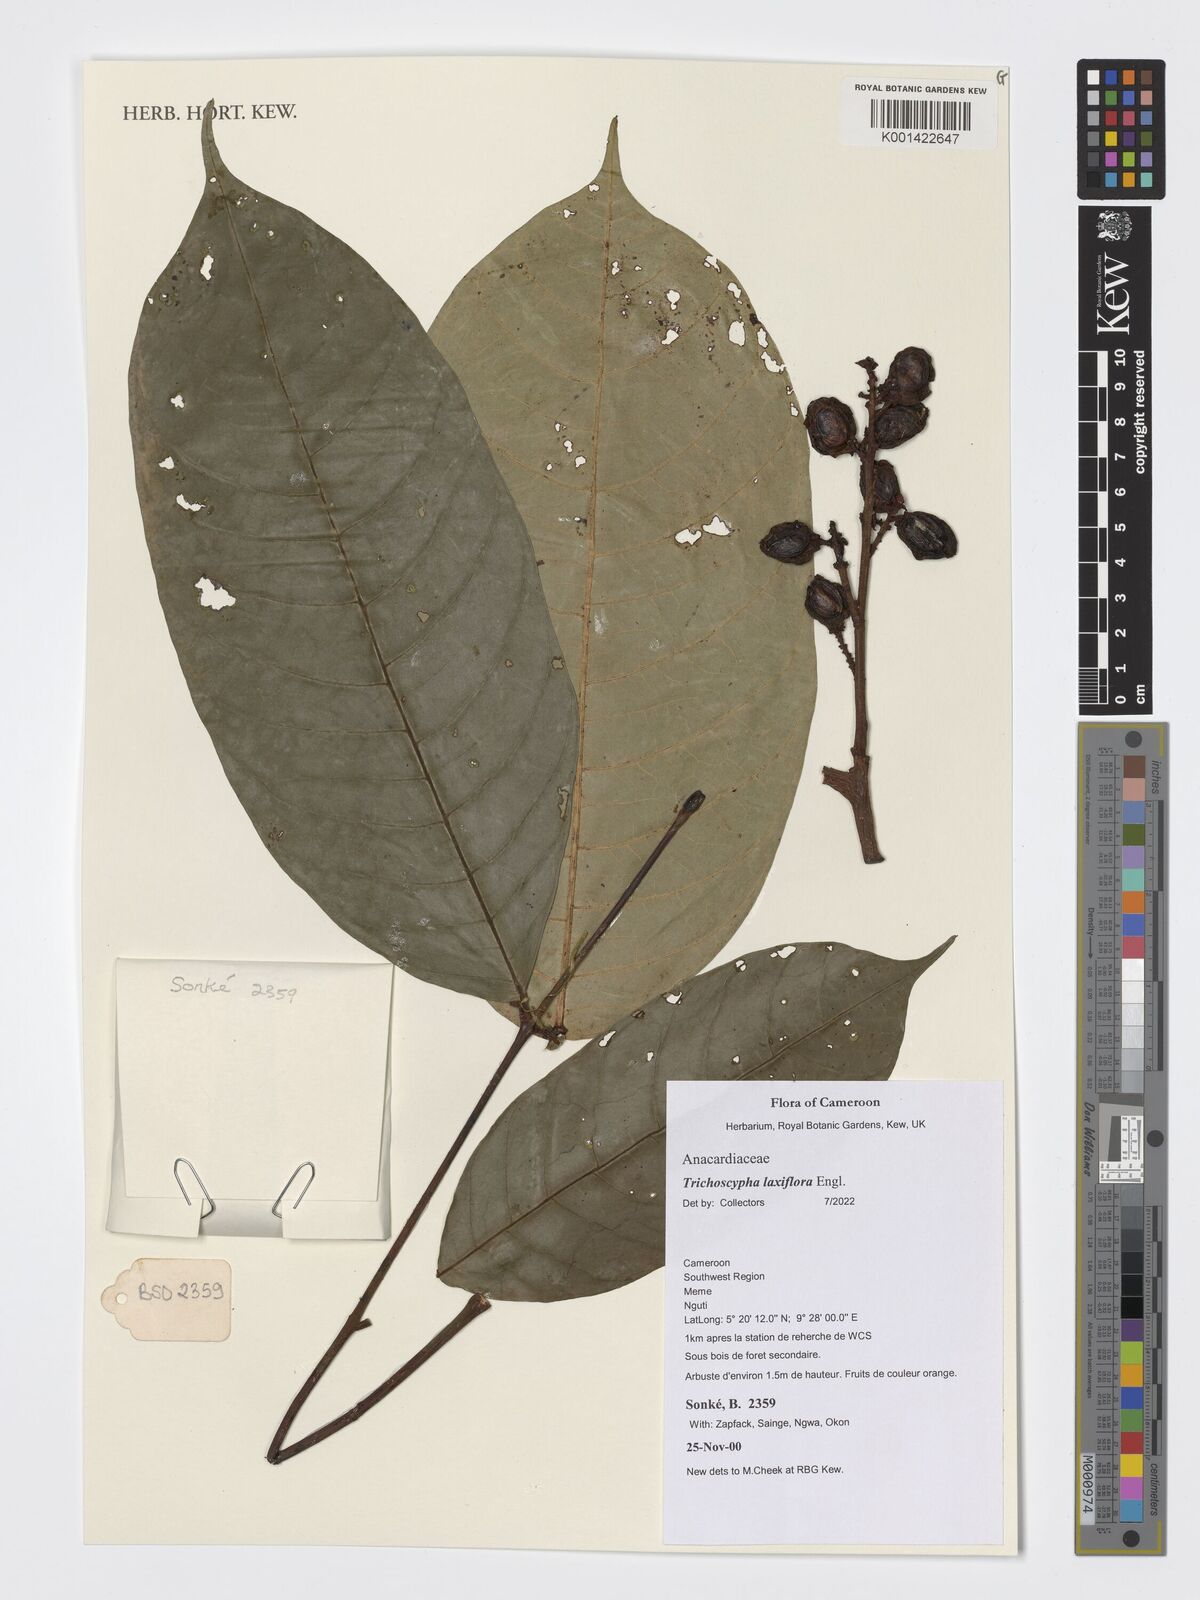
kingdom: Plantae
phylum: Tracheophyta
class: Magnoliopsida
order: Sapindales
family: Anacardiaceae
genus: Trichoscypha
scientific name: Trichoscypha laxiflora
